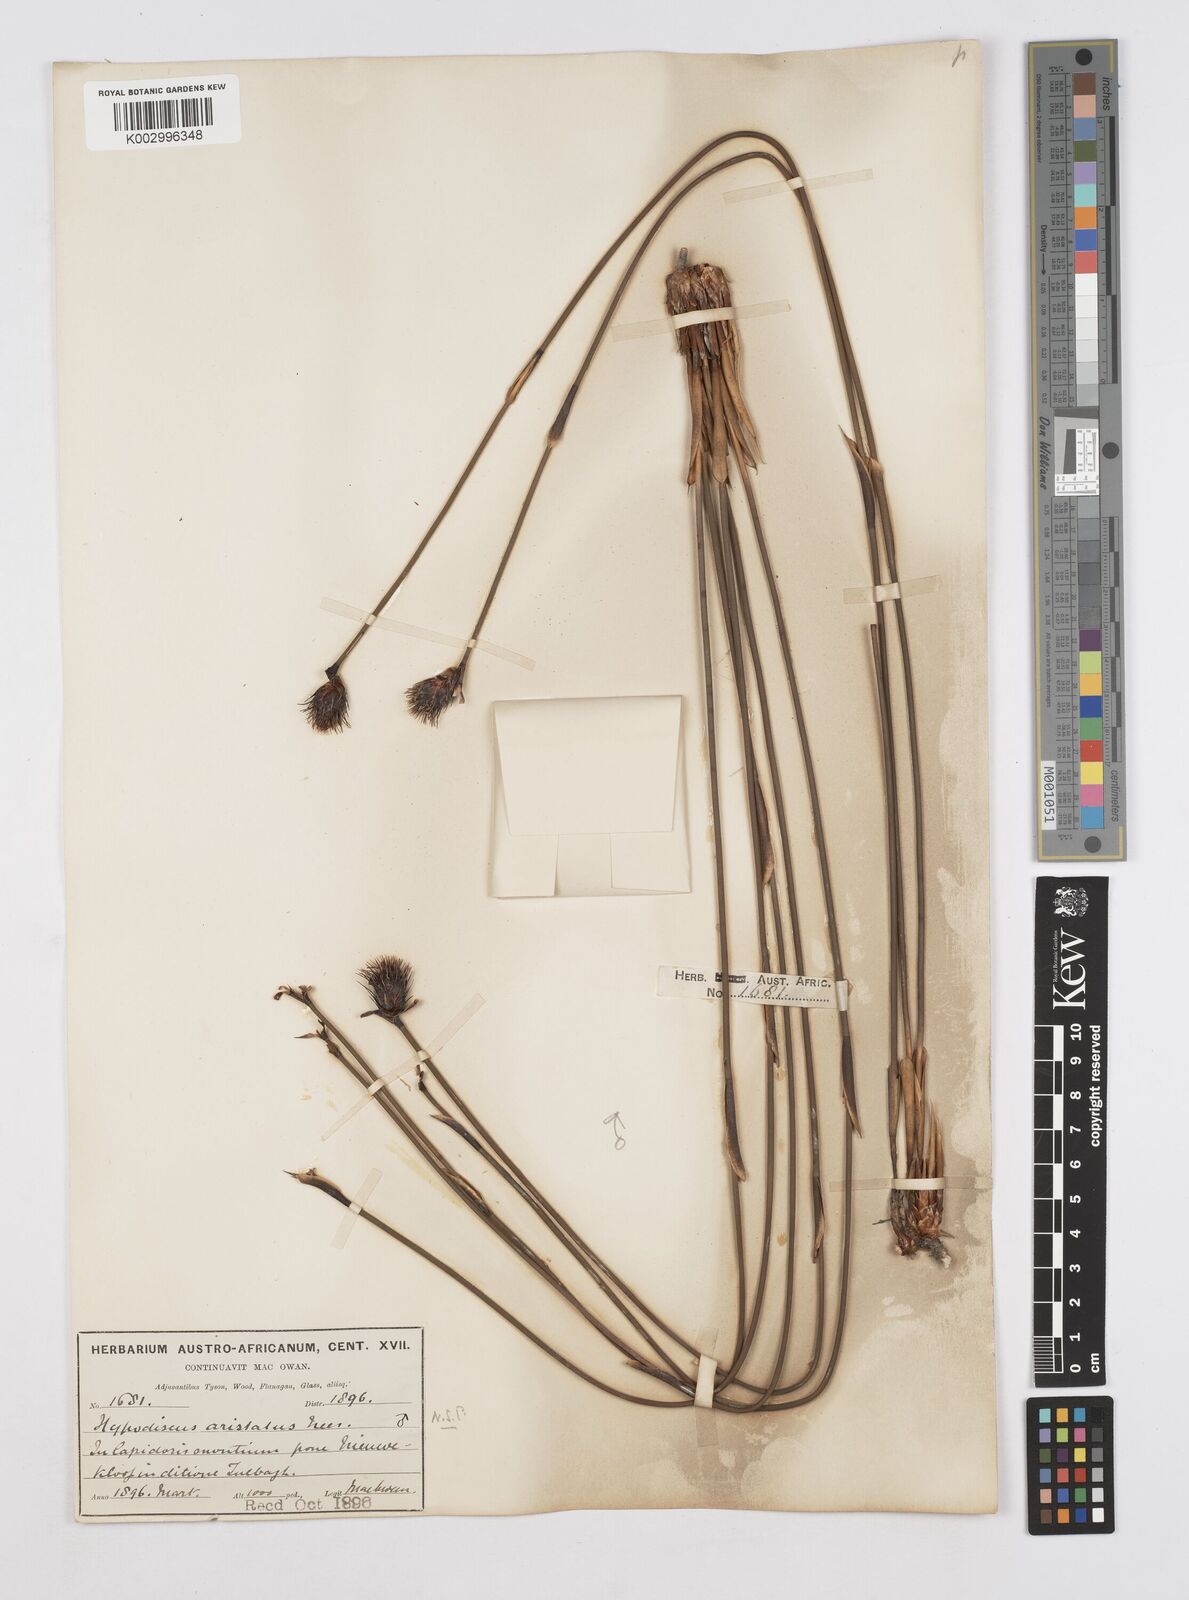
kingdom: Plantae
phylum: Tracheophyta
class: Liliopsida
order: Poales
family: Restionaceae
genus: Hypodiscus
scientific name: Hypodiscus aristatus
